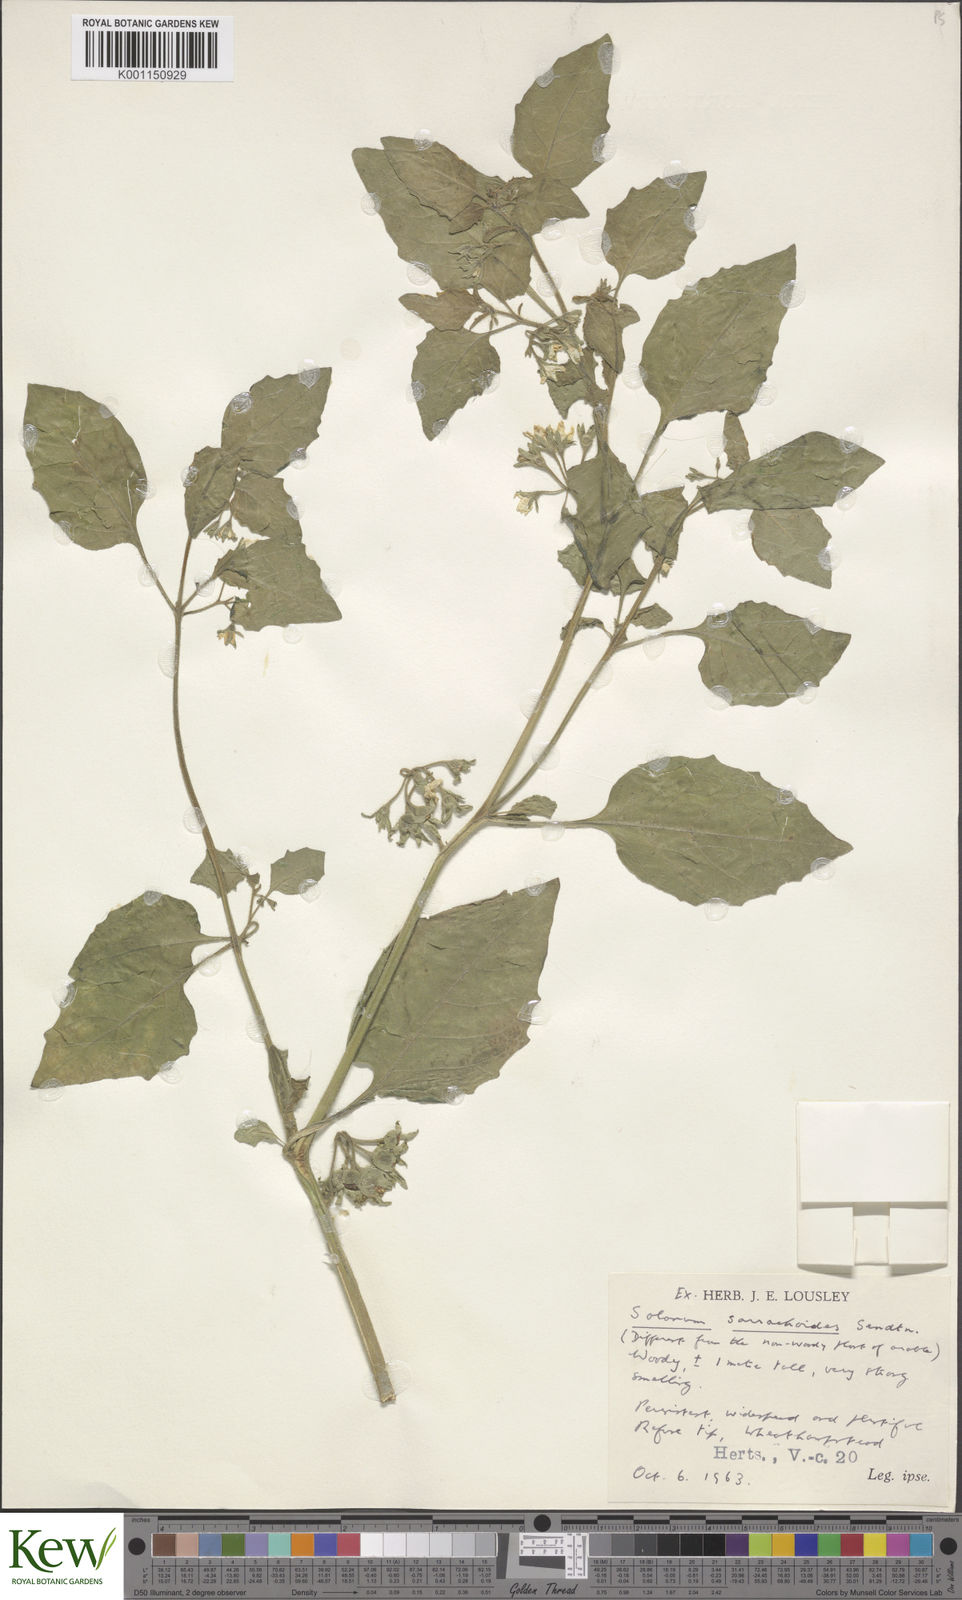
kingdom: Plantae
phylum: Tracheophyta
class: Magnoliopsida
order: Solanales
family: Solanaceae
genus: Solanum
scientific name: Solanum sarrachoides
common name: Leafy-fruited nightshade
